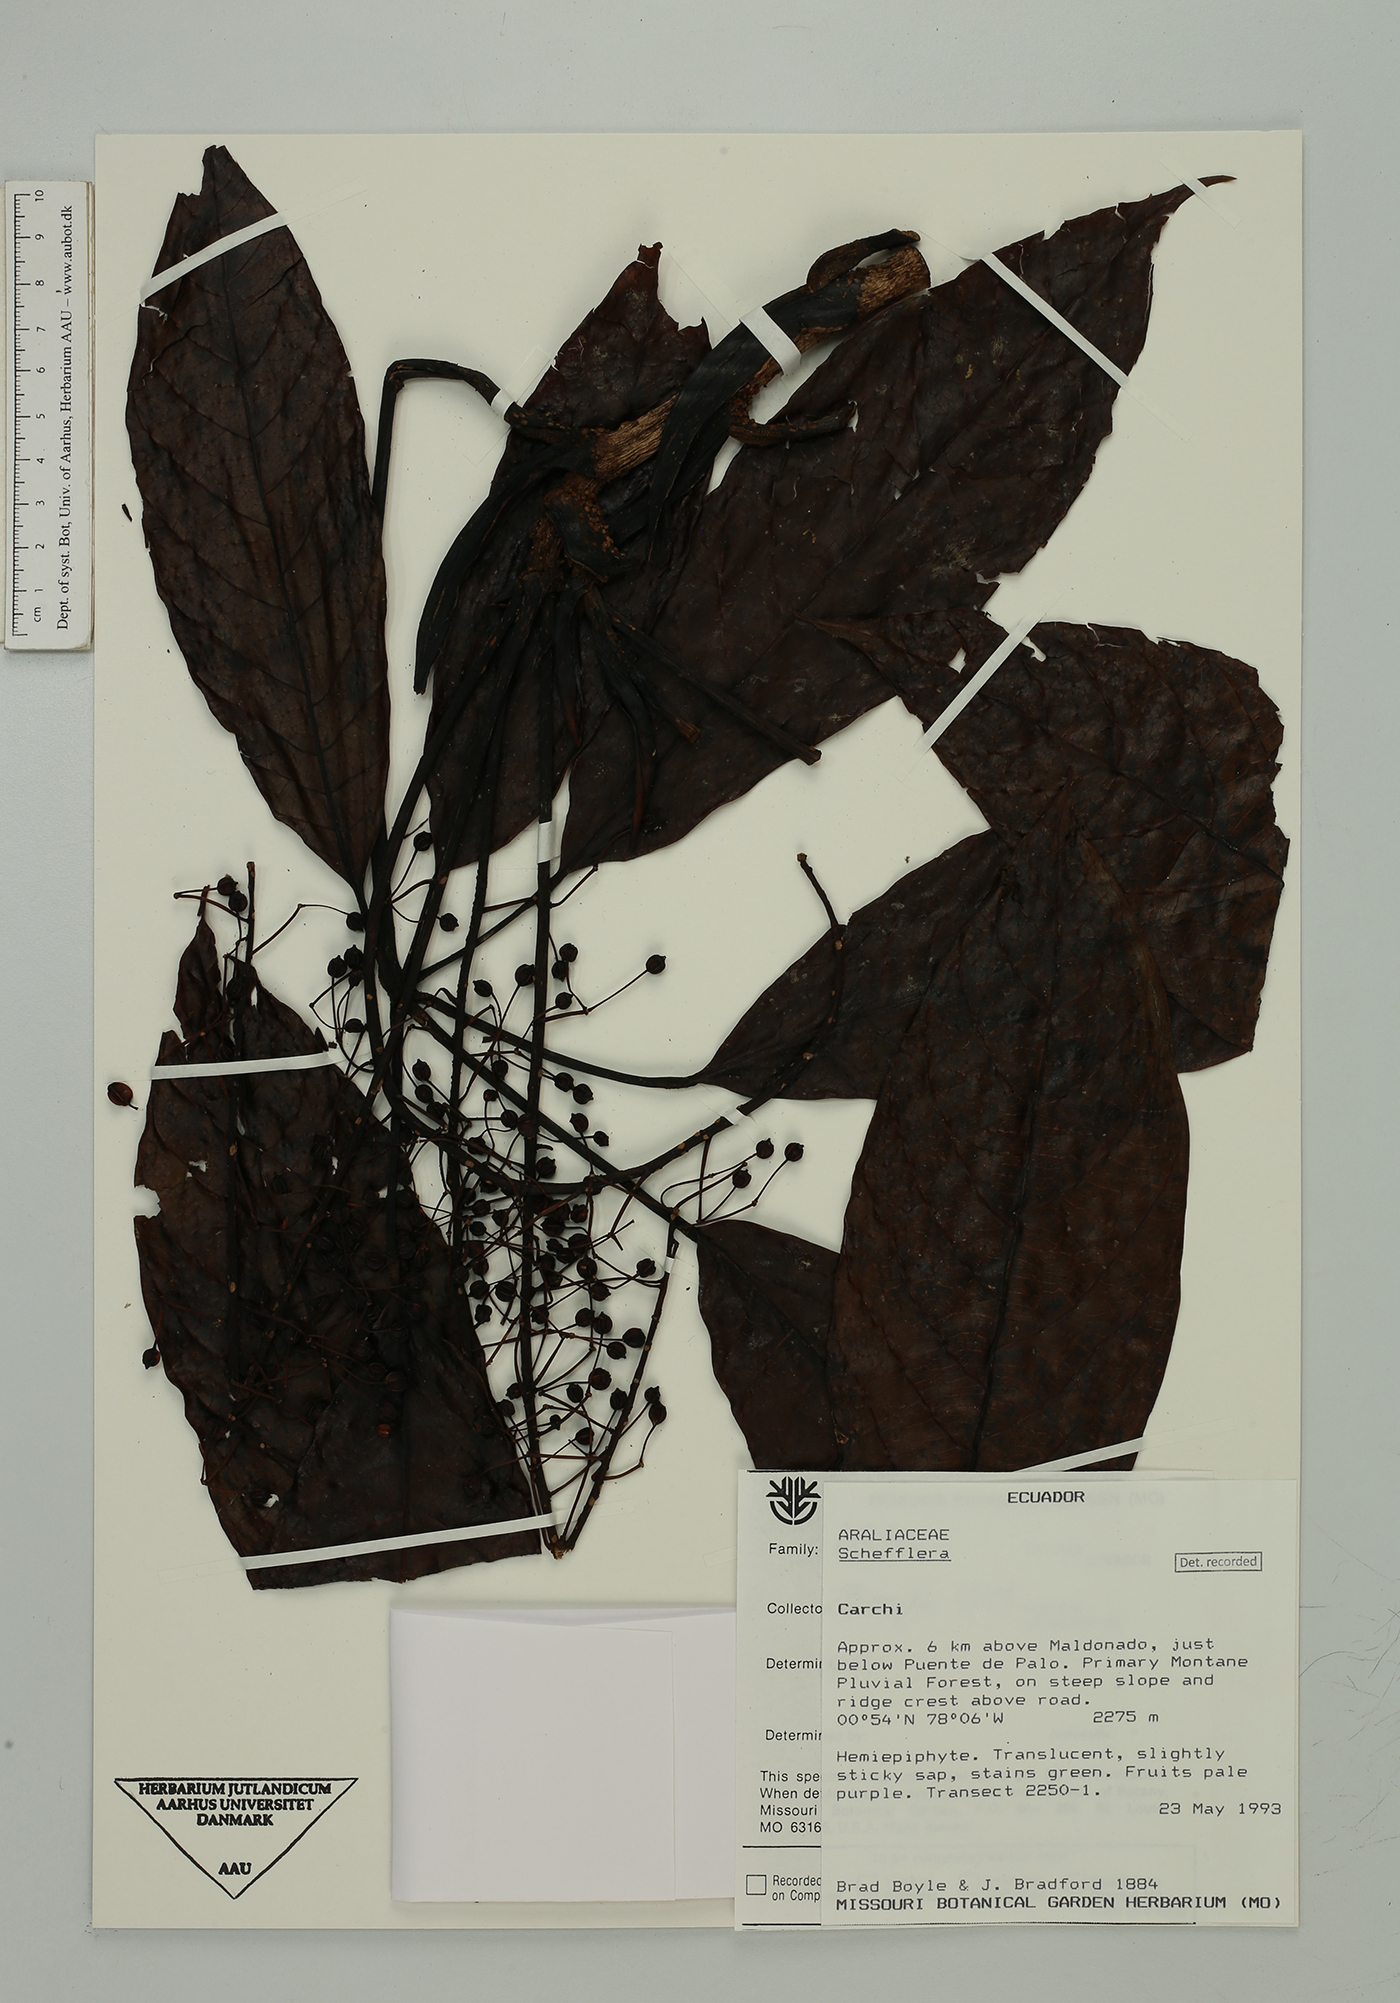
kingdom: Plantae
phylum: Tracheophyta
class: Magnoliopsida
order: Apiales
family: Araliaceae
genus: Sciodaphyllum
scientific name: Sciodaphyllum
